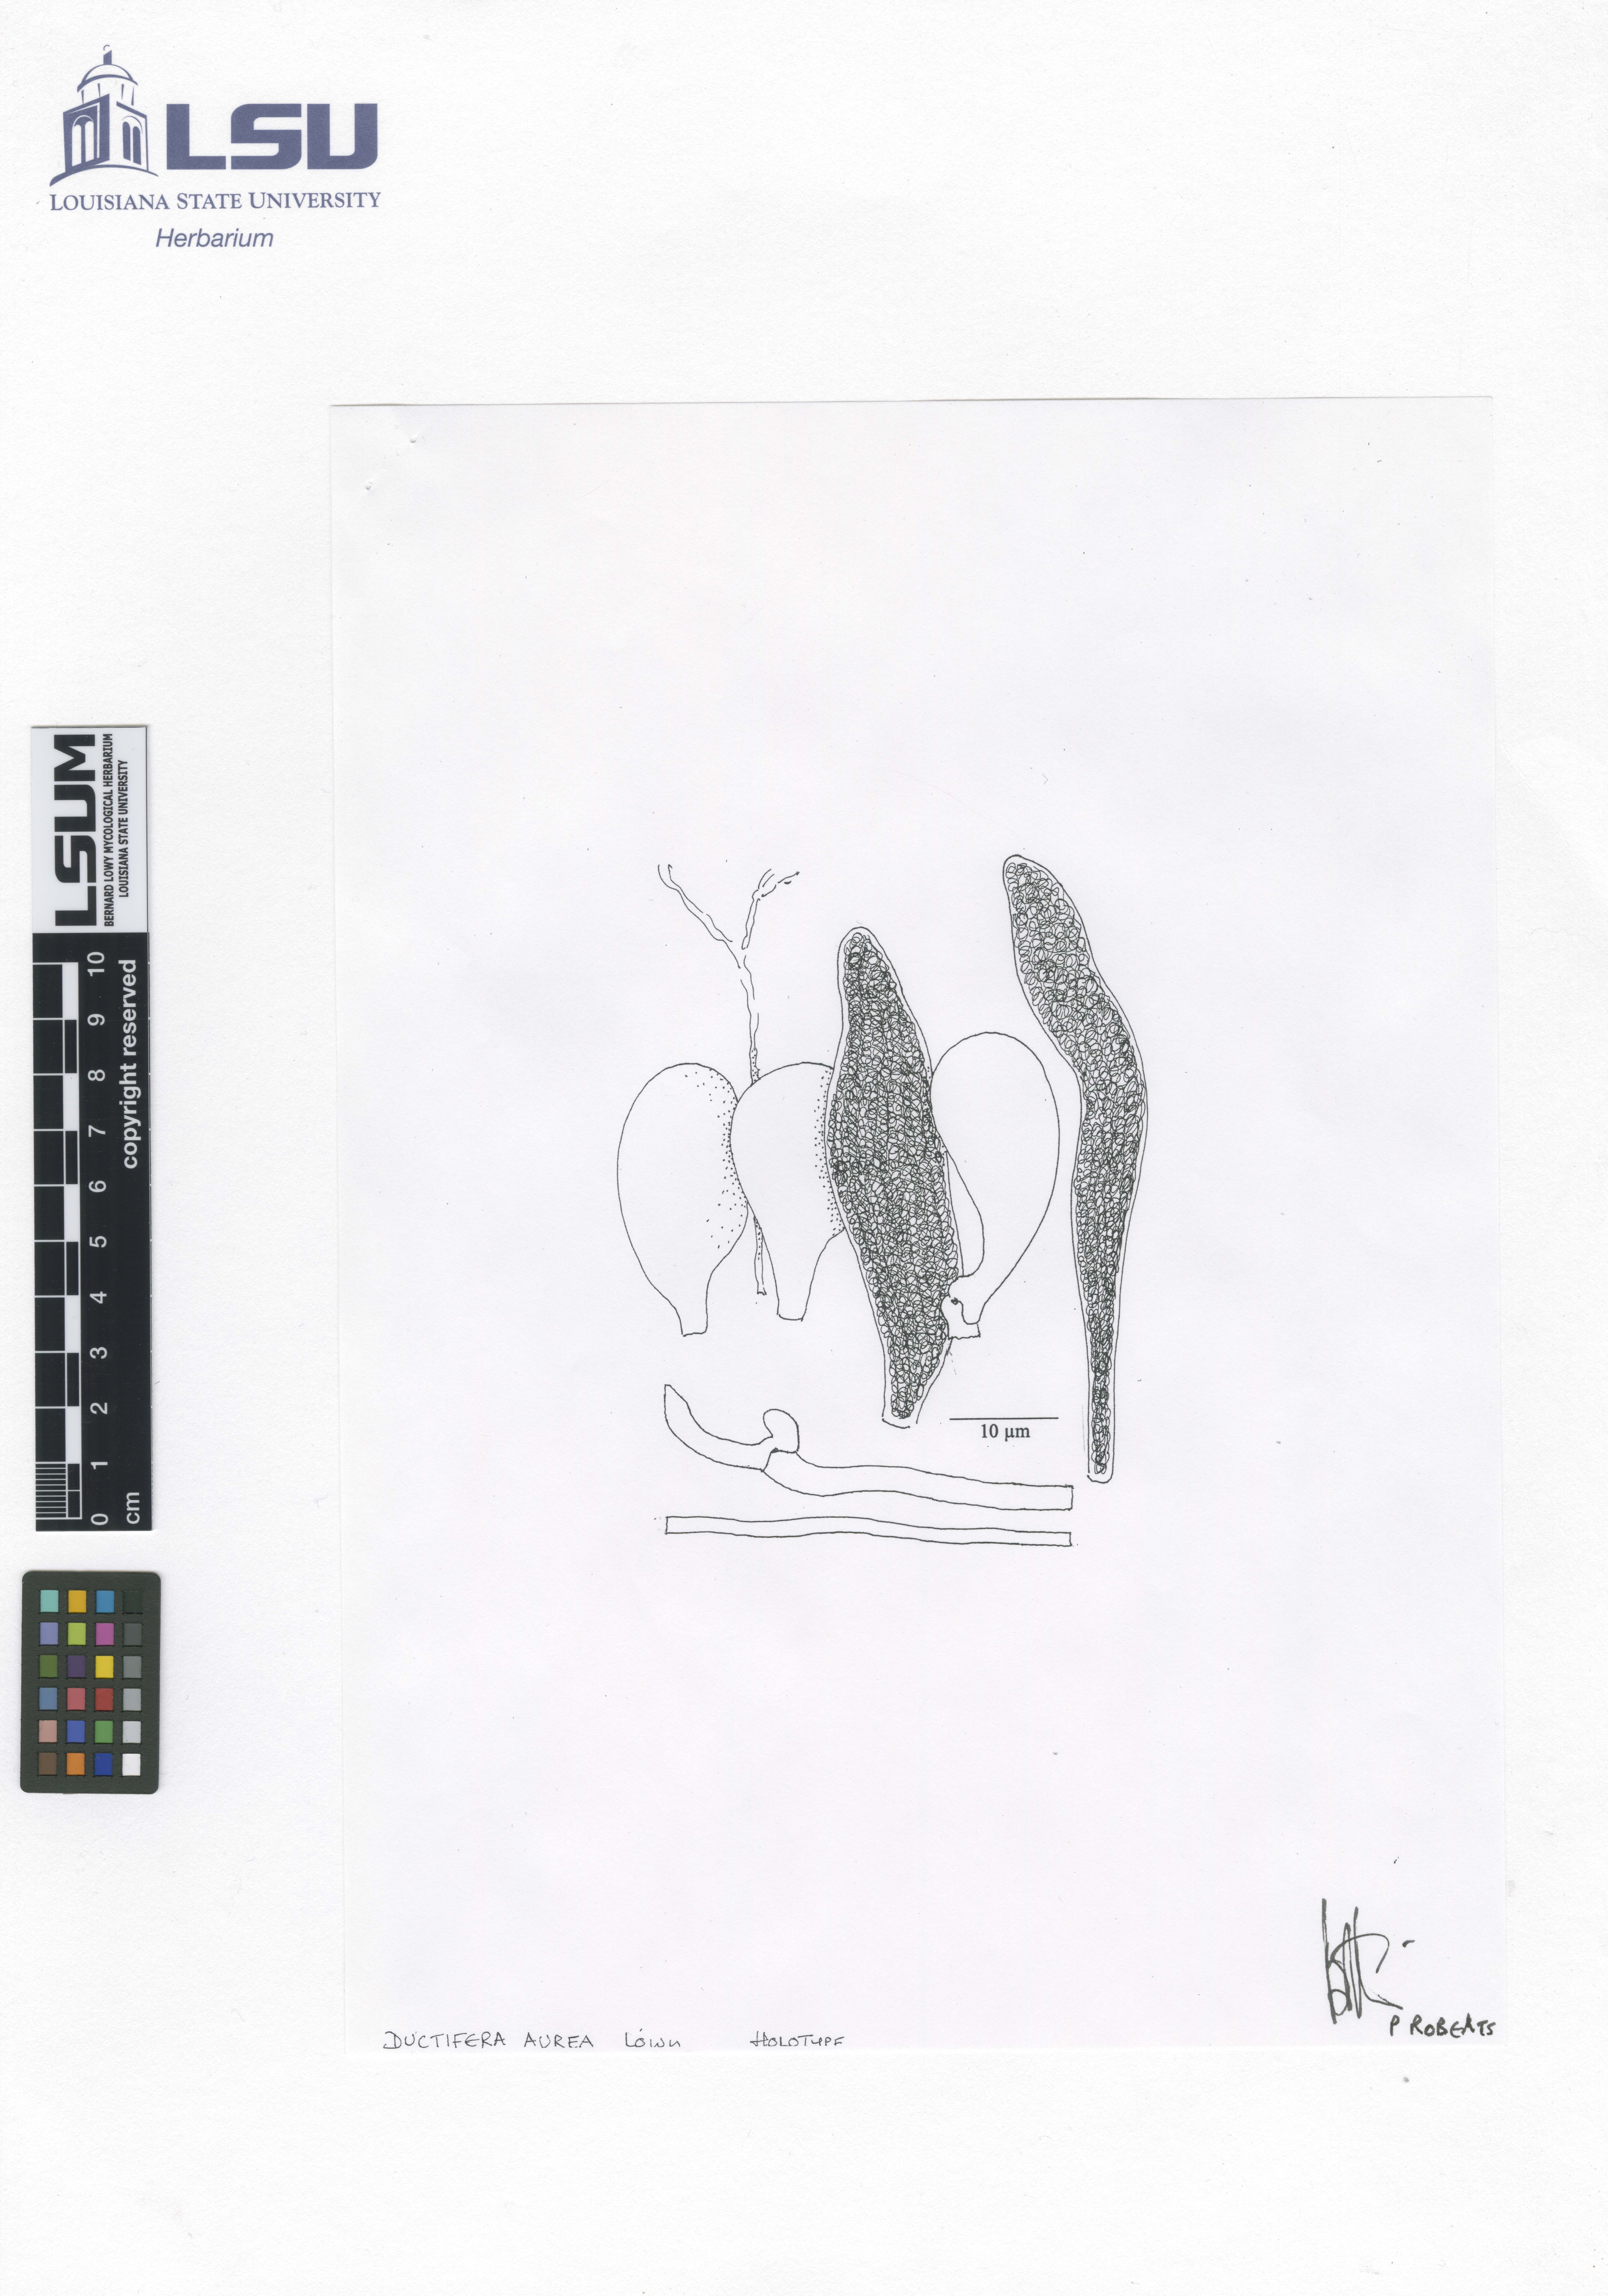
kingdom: Fungi
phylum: Basidiomycota
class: Agaricomycetes
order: Auriculariales
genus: Ductifera
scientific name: Ductifera aurea
